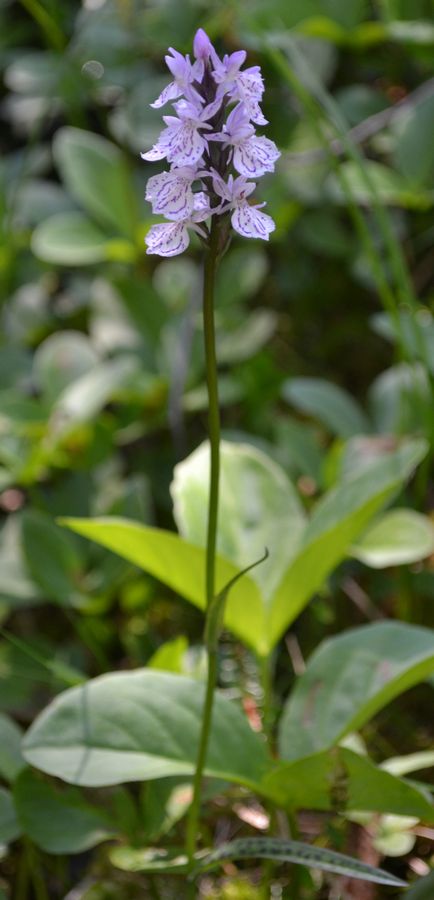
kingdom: Plantae
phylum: Tracheophyta
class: Liliopsida
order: Asparagales
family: Orchidaceae
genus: Dactylorhiza
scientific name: Dactylorhiza maculata
